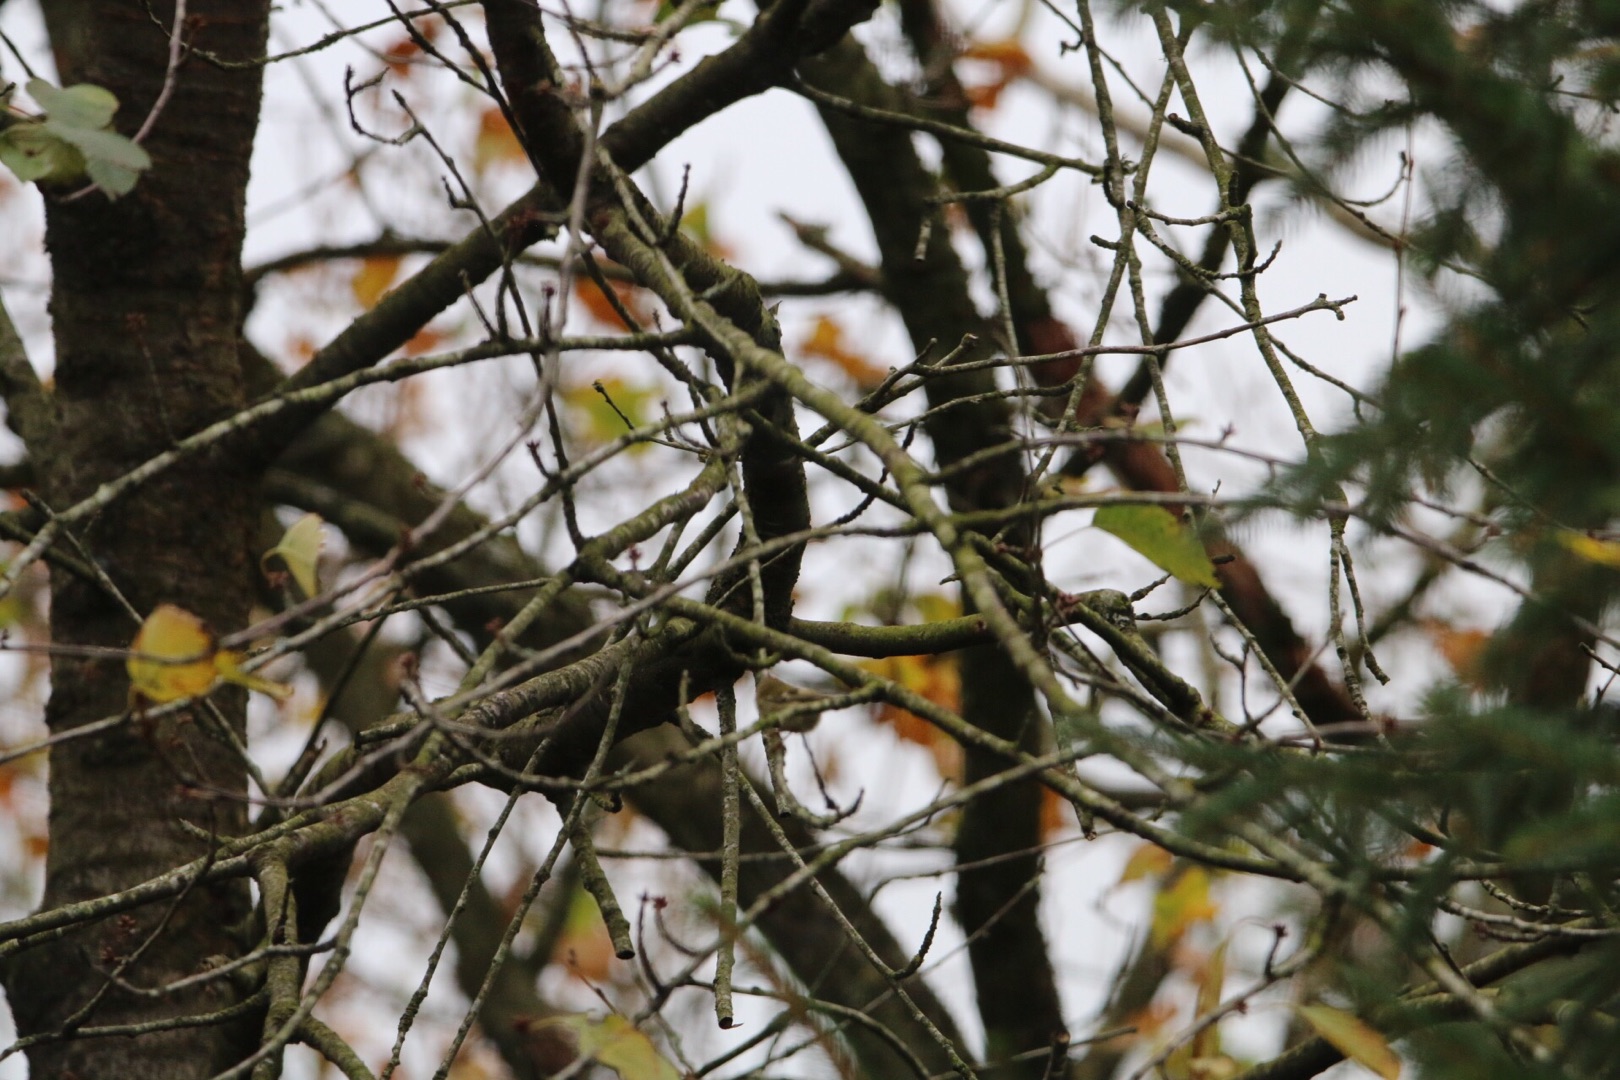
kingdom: Animalia
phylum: Chordata
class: Aves
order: Passeriformes
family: Regulidae
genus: Regulus
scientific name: Regulus regulus
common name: Fuglekonge
